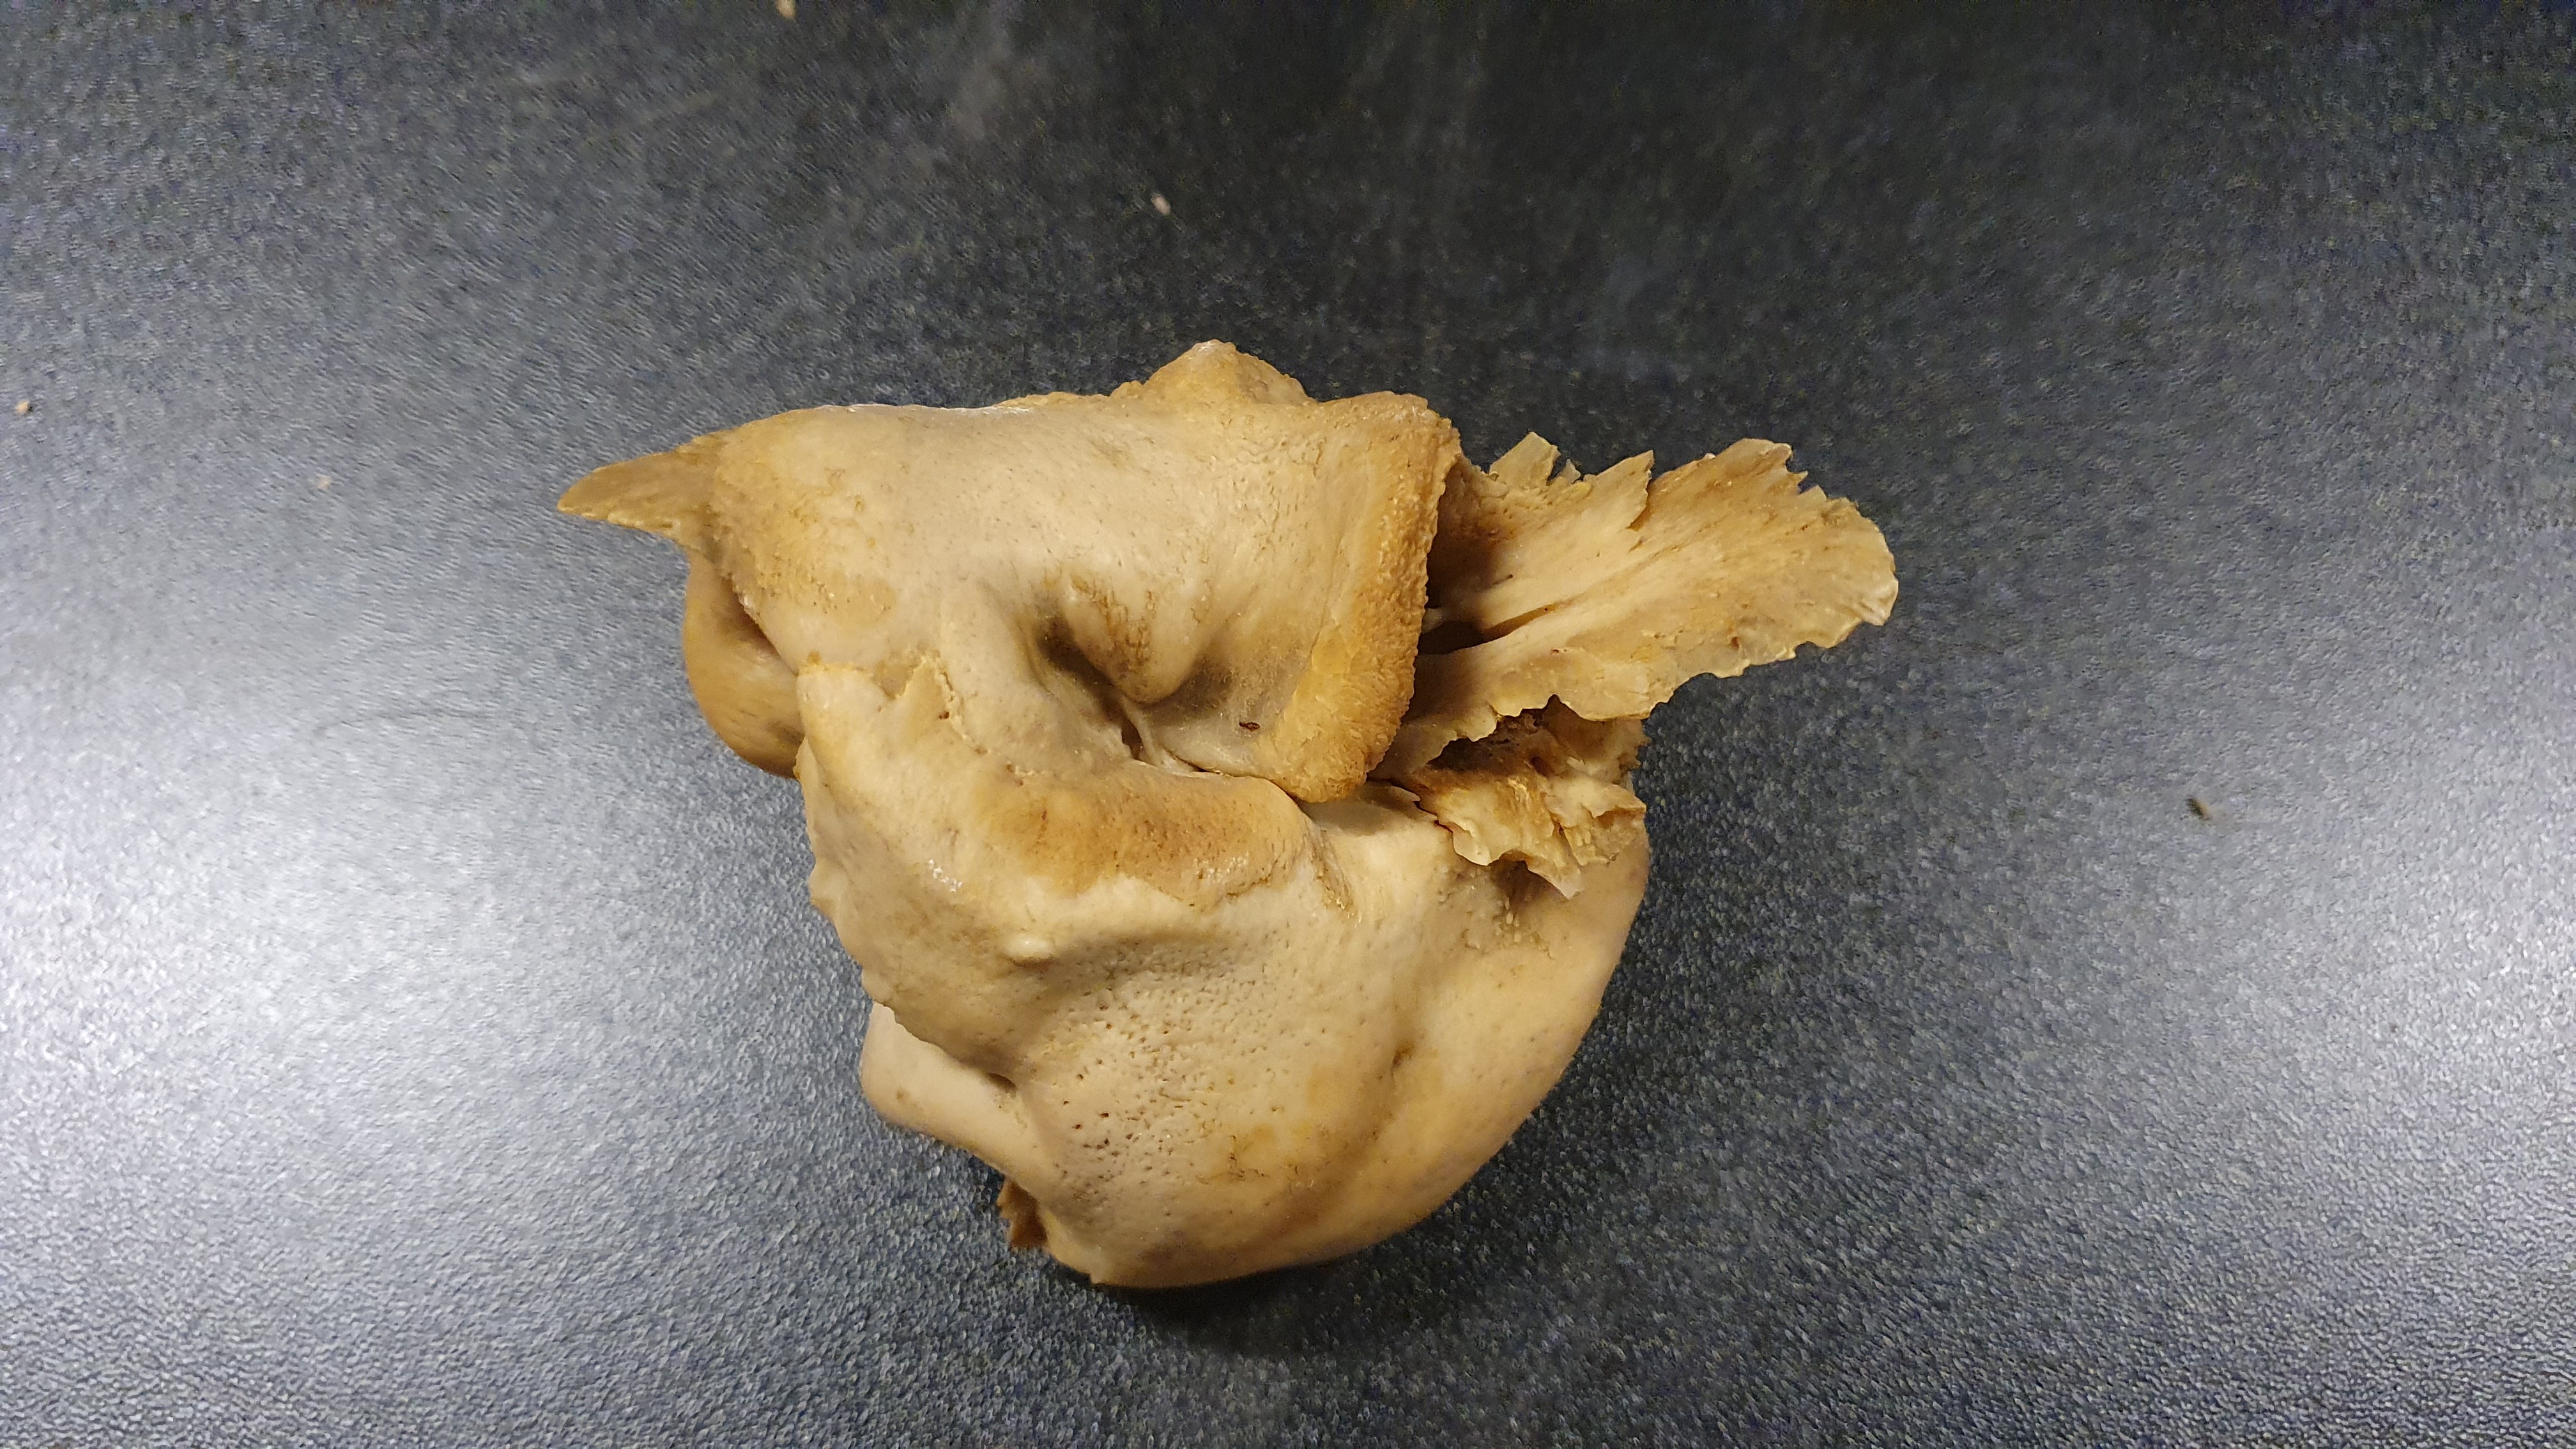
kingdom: Animalia
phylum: Chordata
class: Mammalia
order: Cetacea
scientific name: Cetacea
